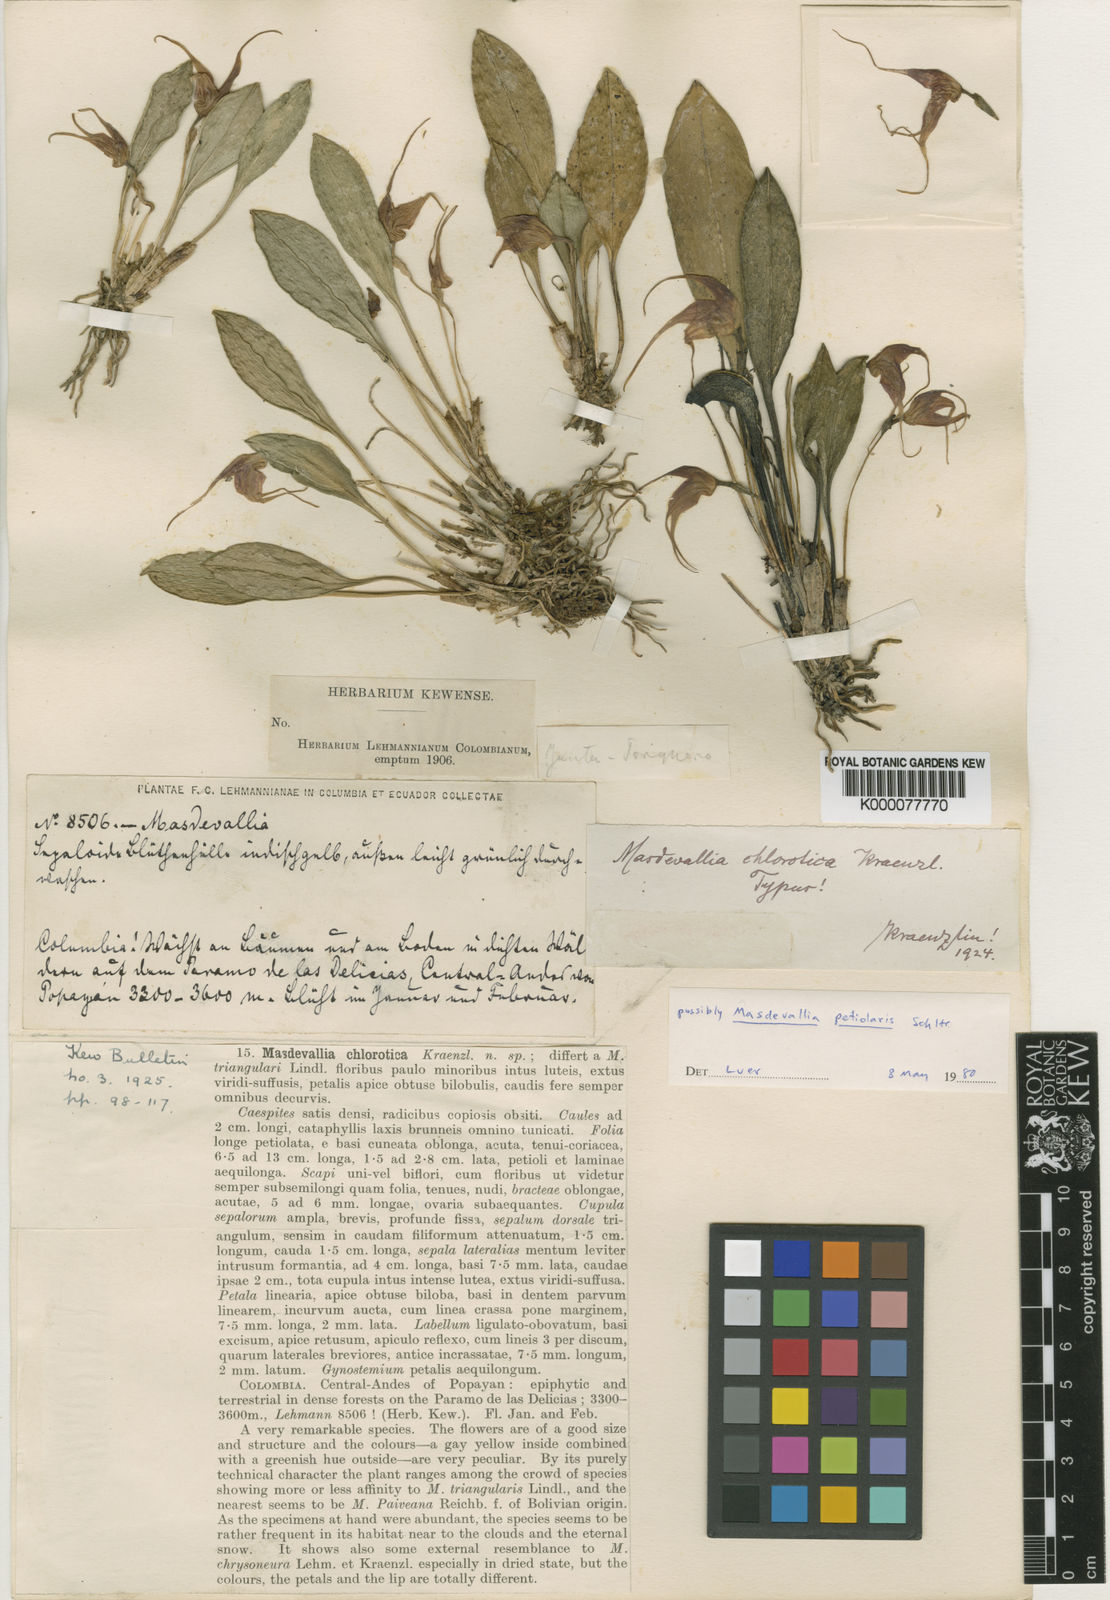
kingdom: Plantae
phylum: Tracheophyta
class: Liliopsida
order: Asparagales
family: Orchidaceae
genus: Masdevallia
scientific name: Masdevallia laevis
